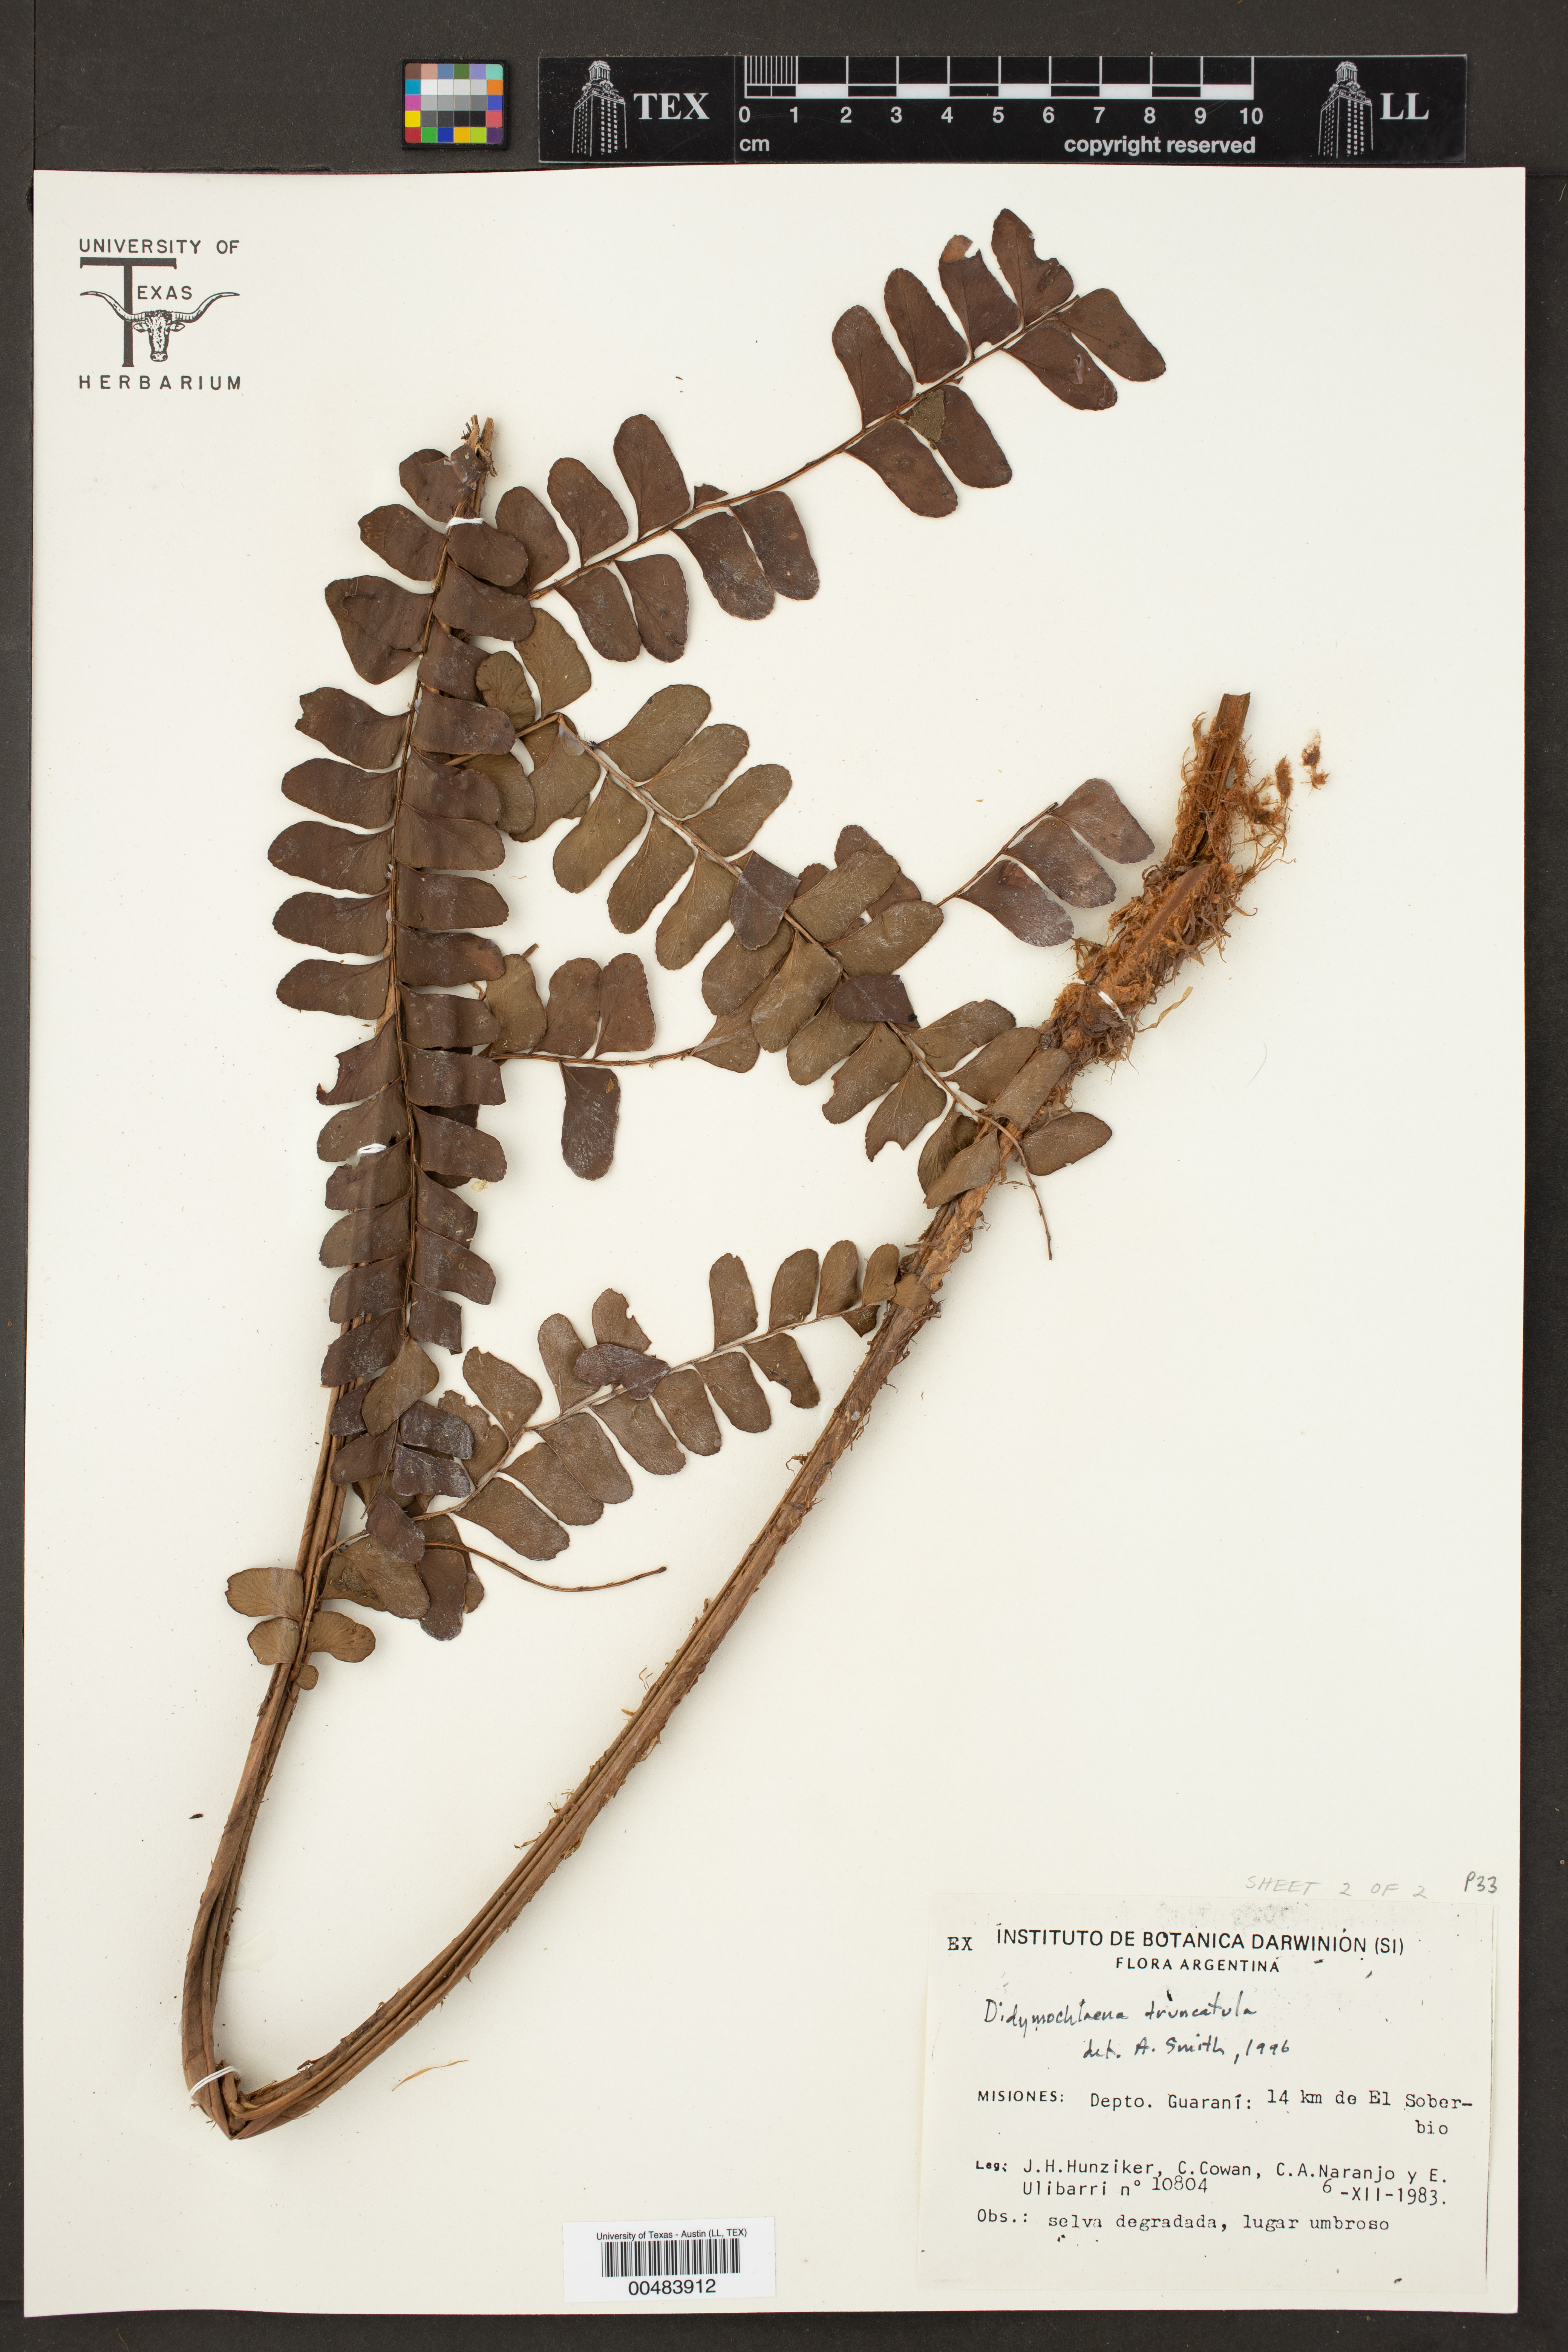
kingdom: Plantae
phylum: Tracheophyta
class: Polypodiopsida
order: Polypodiales
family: Didymochlaenaceae
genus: Didymochlaena
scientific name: Didymochlaena truncatula
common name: Mahogany fern
